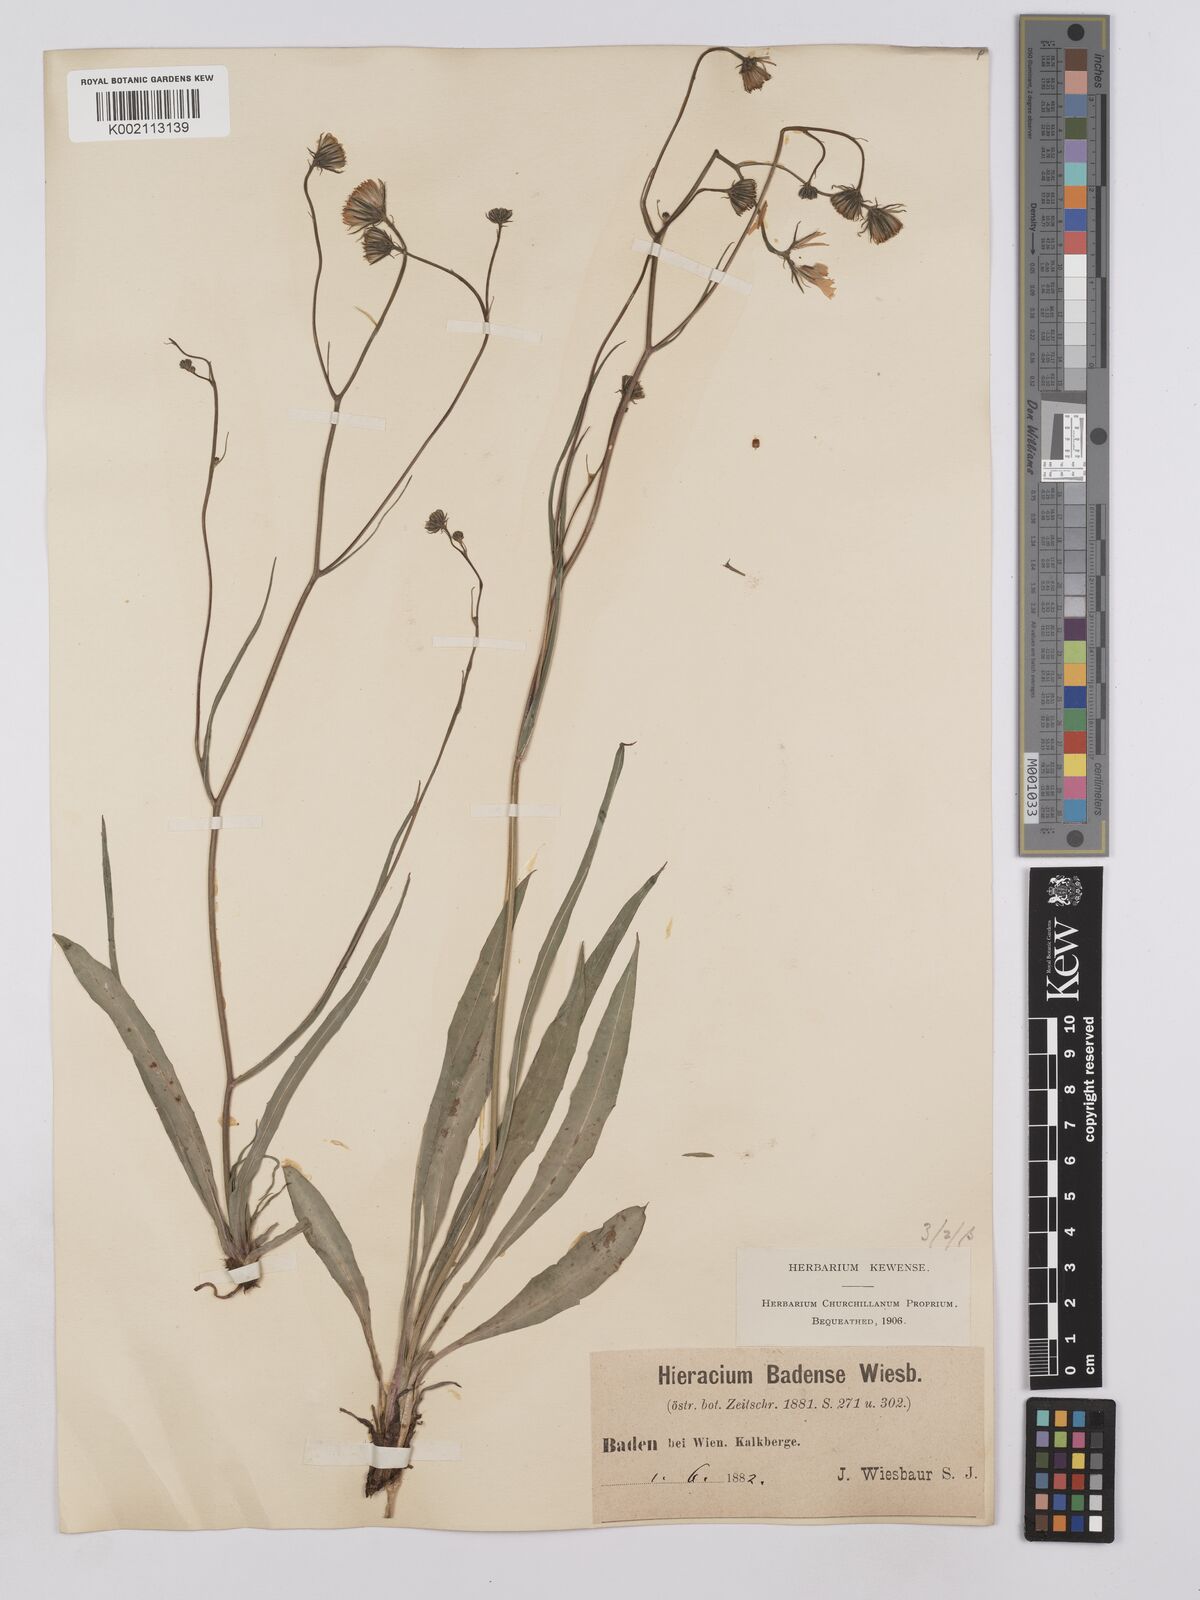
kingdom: Plantae
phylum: Tracheophyta
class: Magnoliopsida
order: Asterales
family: Asteraceae
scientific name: Asteraceae
